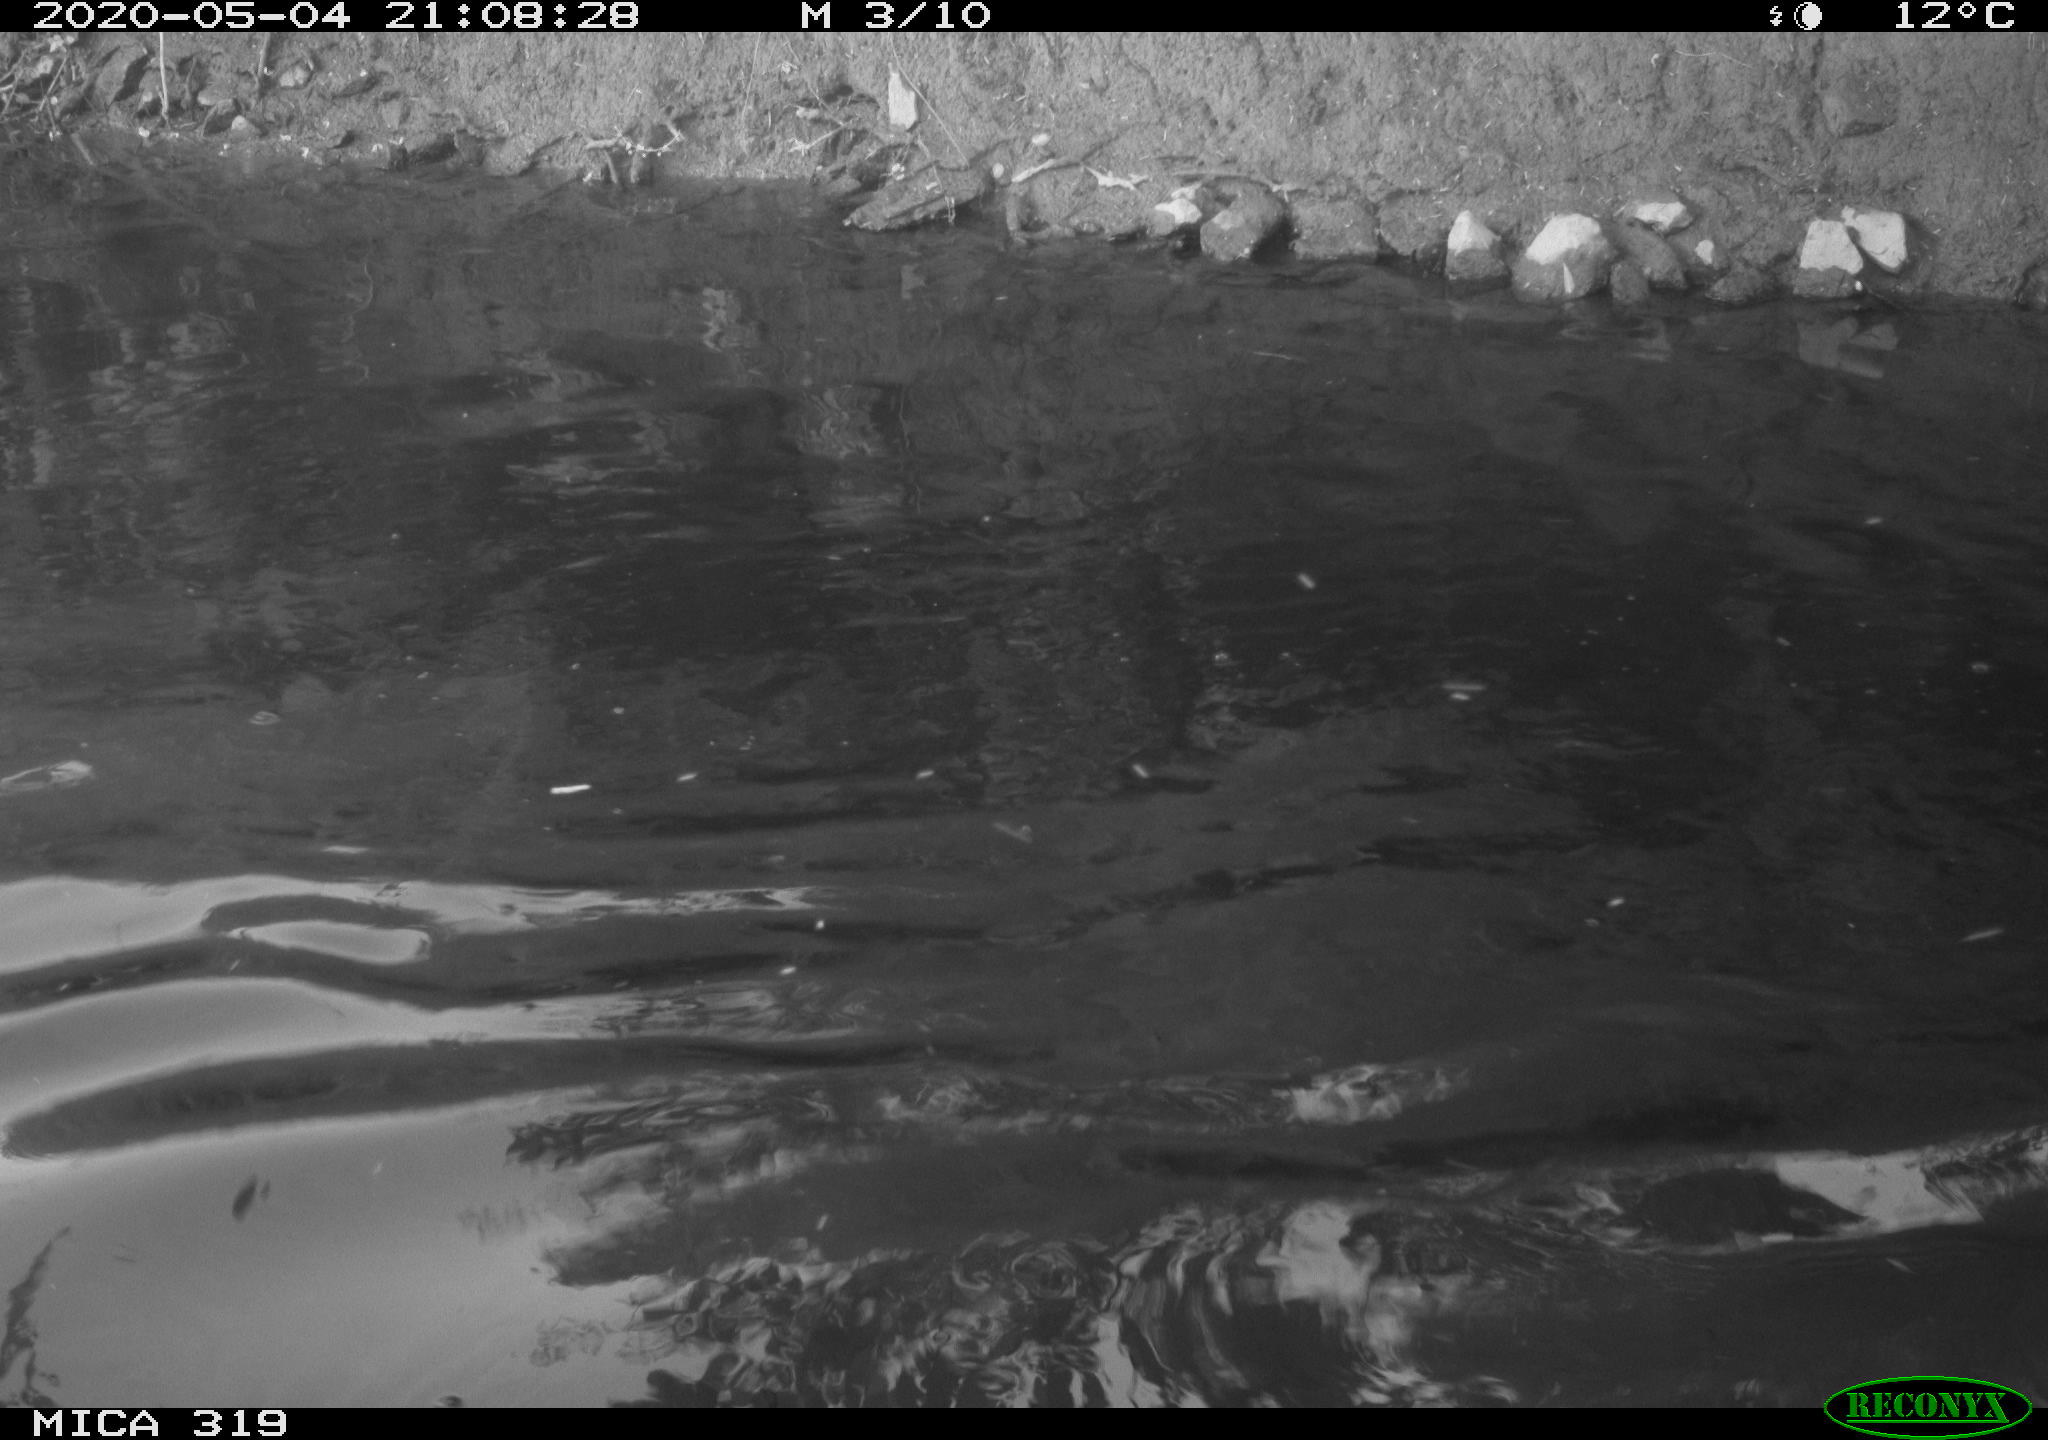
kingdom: Animalia
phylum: Chordata
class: Aves
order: Anseriformes
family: Anatidae
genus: Anas
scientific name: Anas platyrhynchos
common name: Mallard
